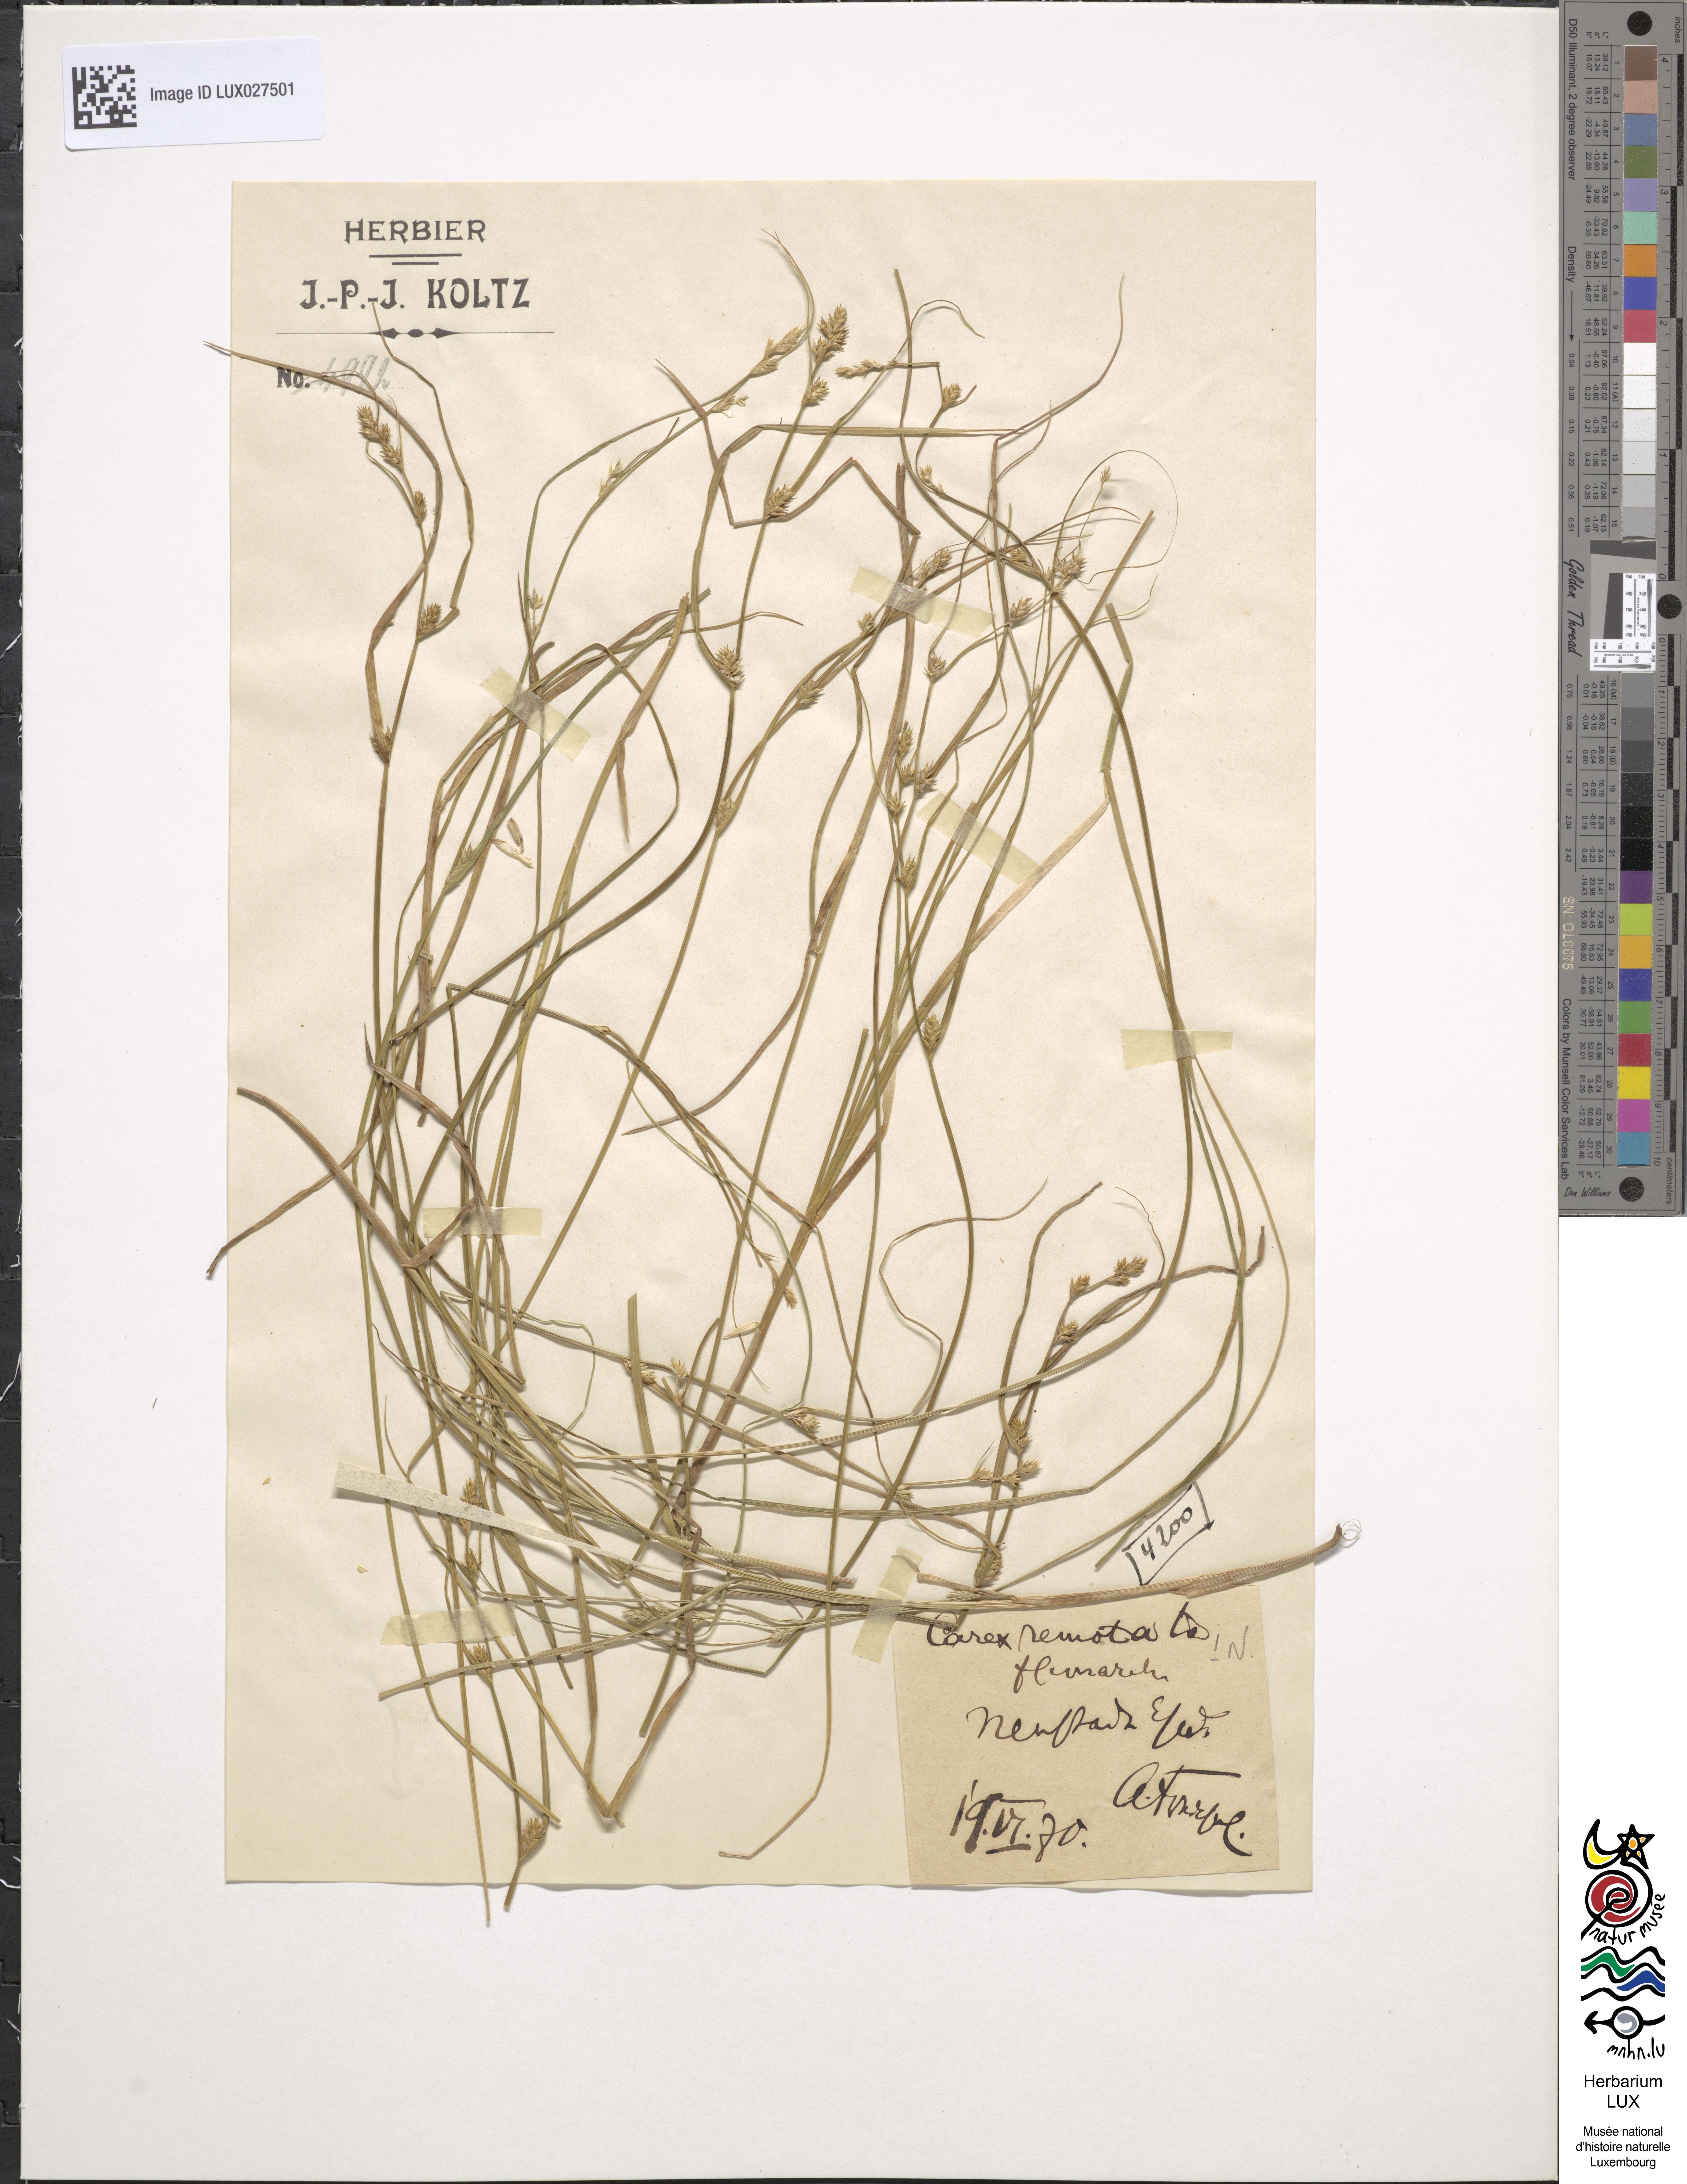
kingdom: Plantae
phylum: Tracheophyta
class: Liliopsida
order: Poales
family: Cyperaceae
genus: Carex
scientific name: Carex remota
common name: Remote sedge
